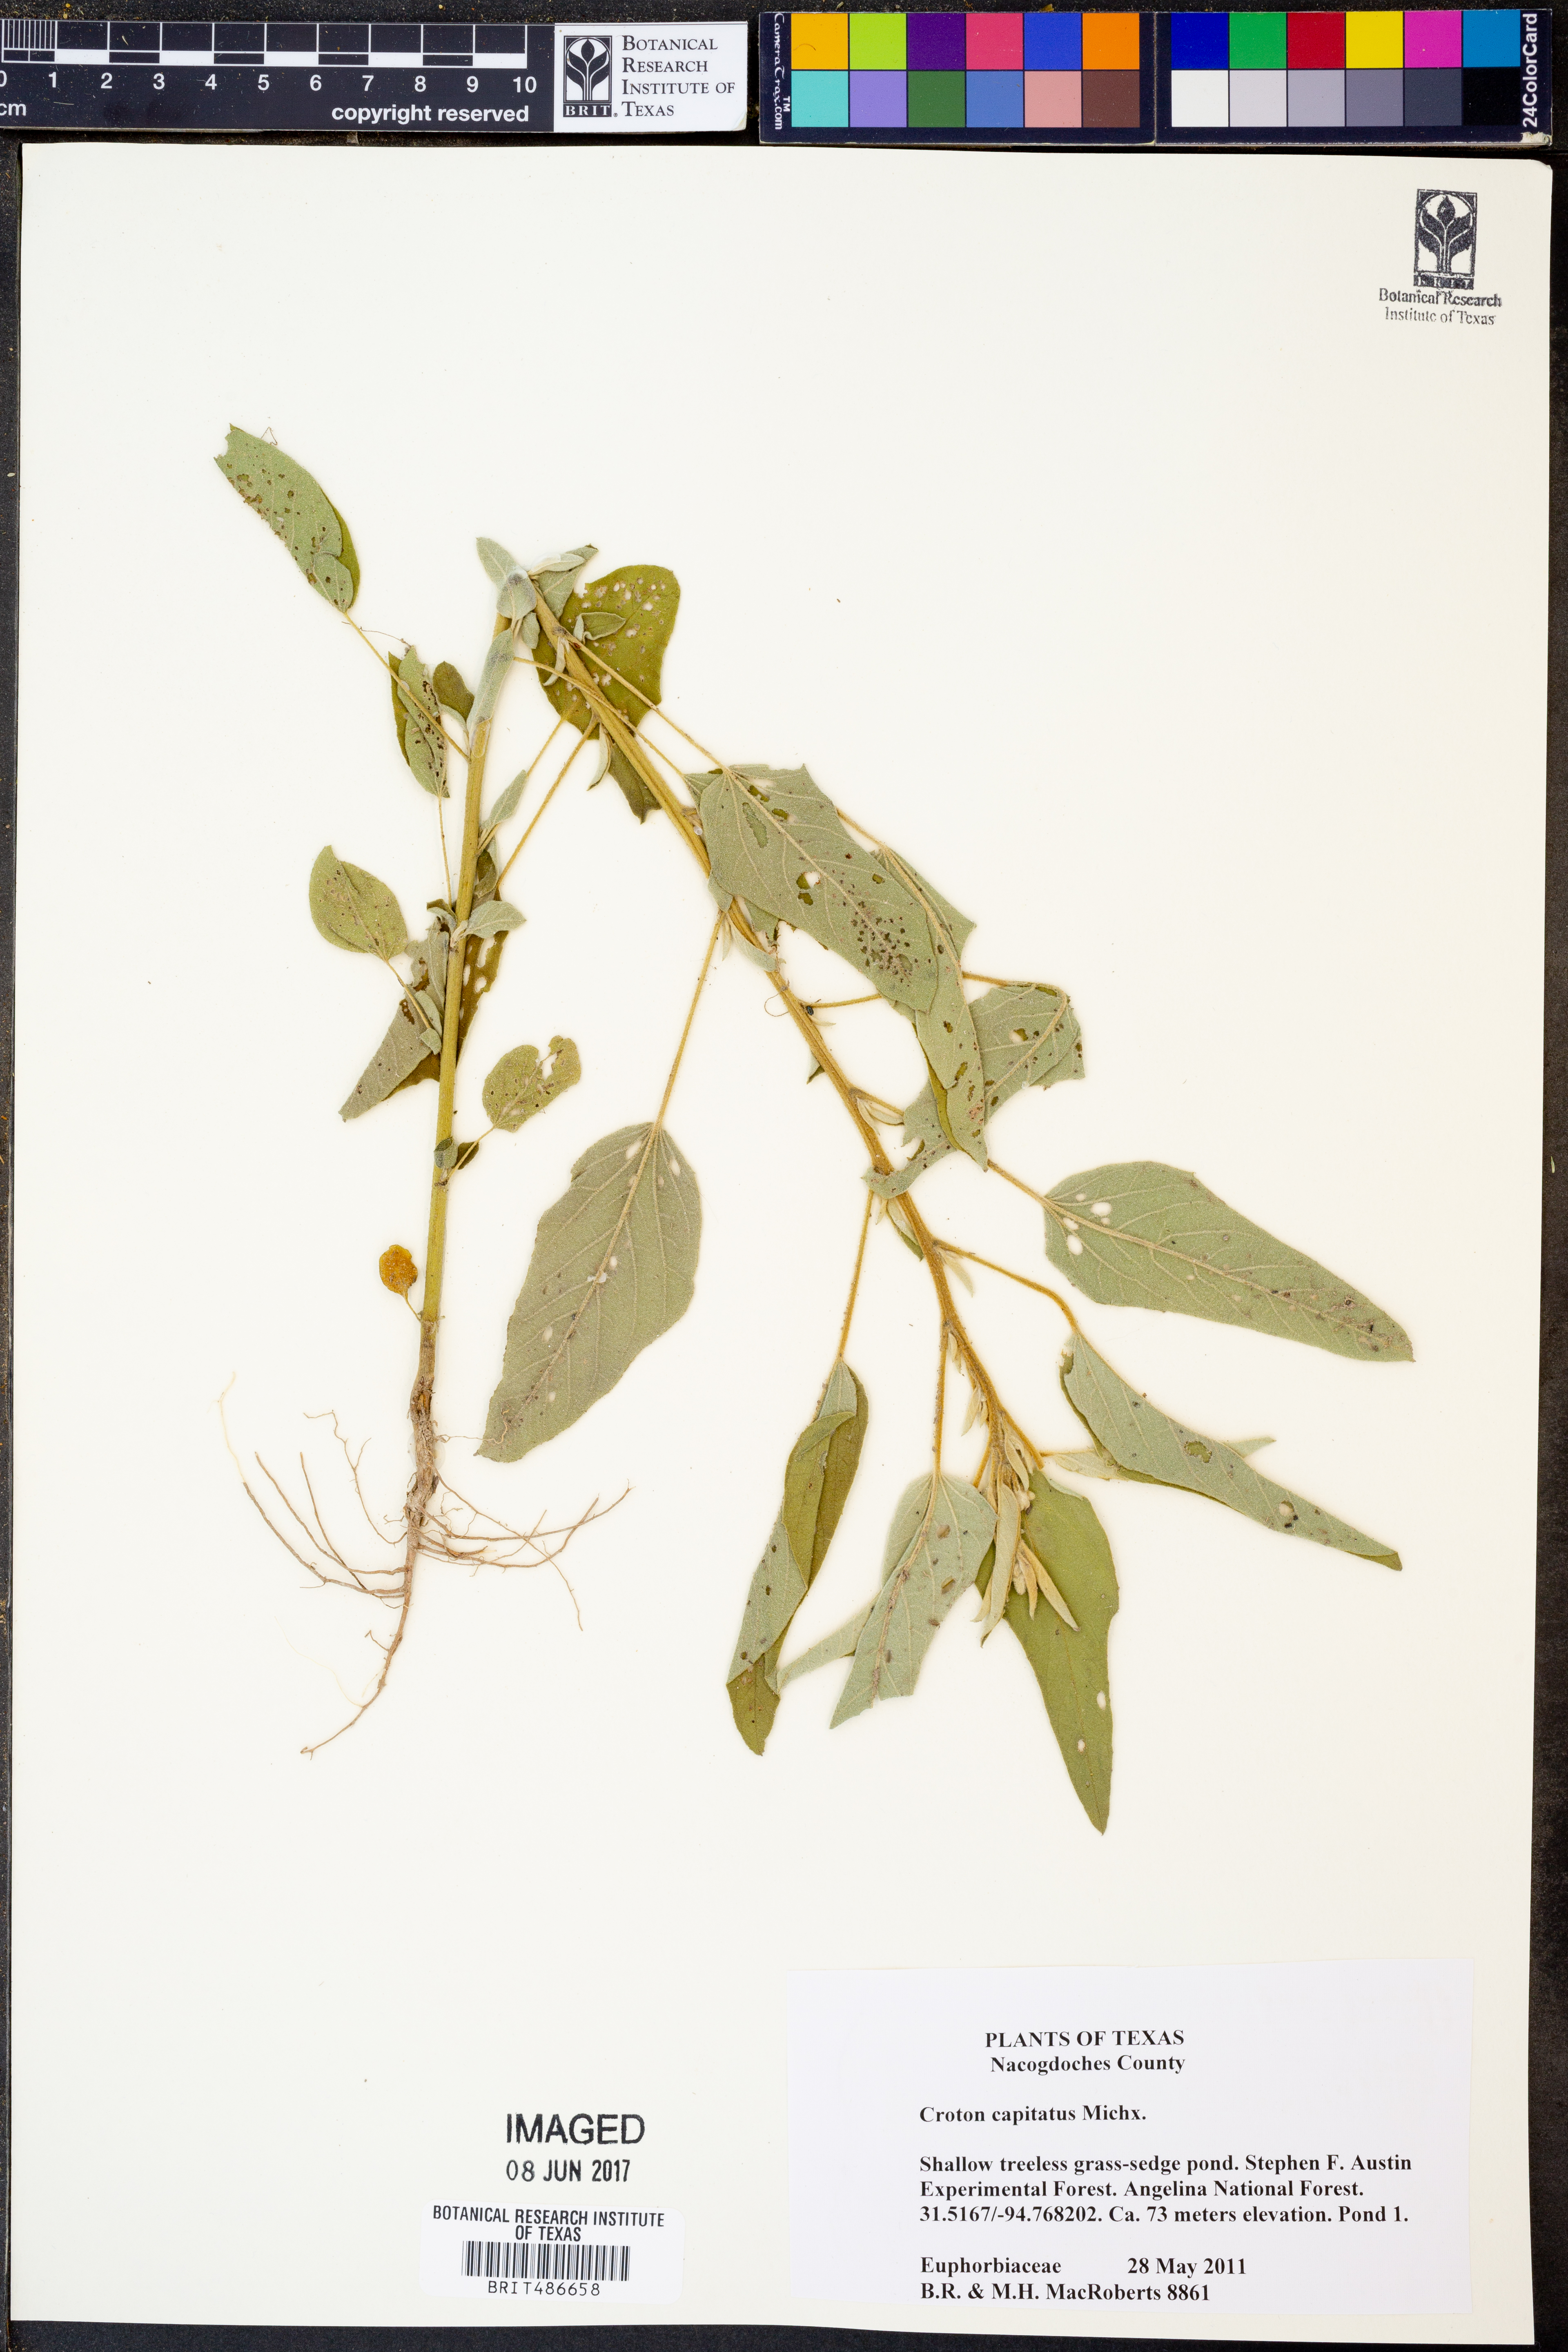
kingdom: Plantae
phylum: Tracheophyta
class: Magnoliopsida
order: Malpighiales
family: Euphorbiaceae
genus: Croton
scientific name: Croton capitatus
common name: Woolly croton
